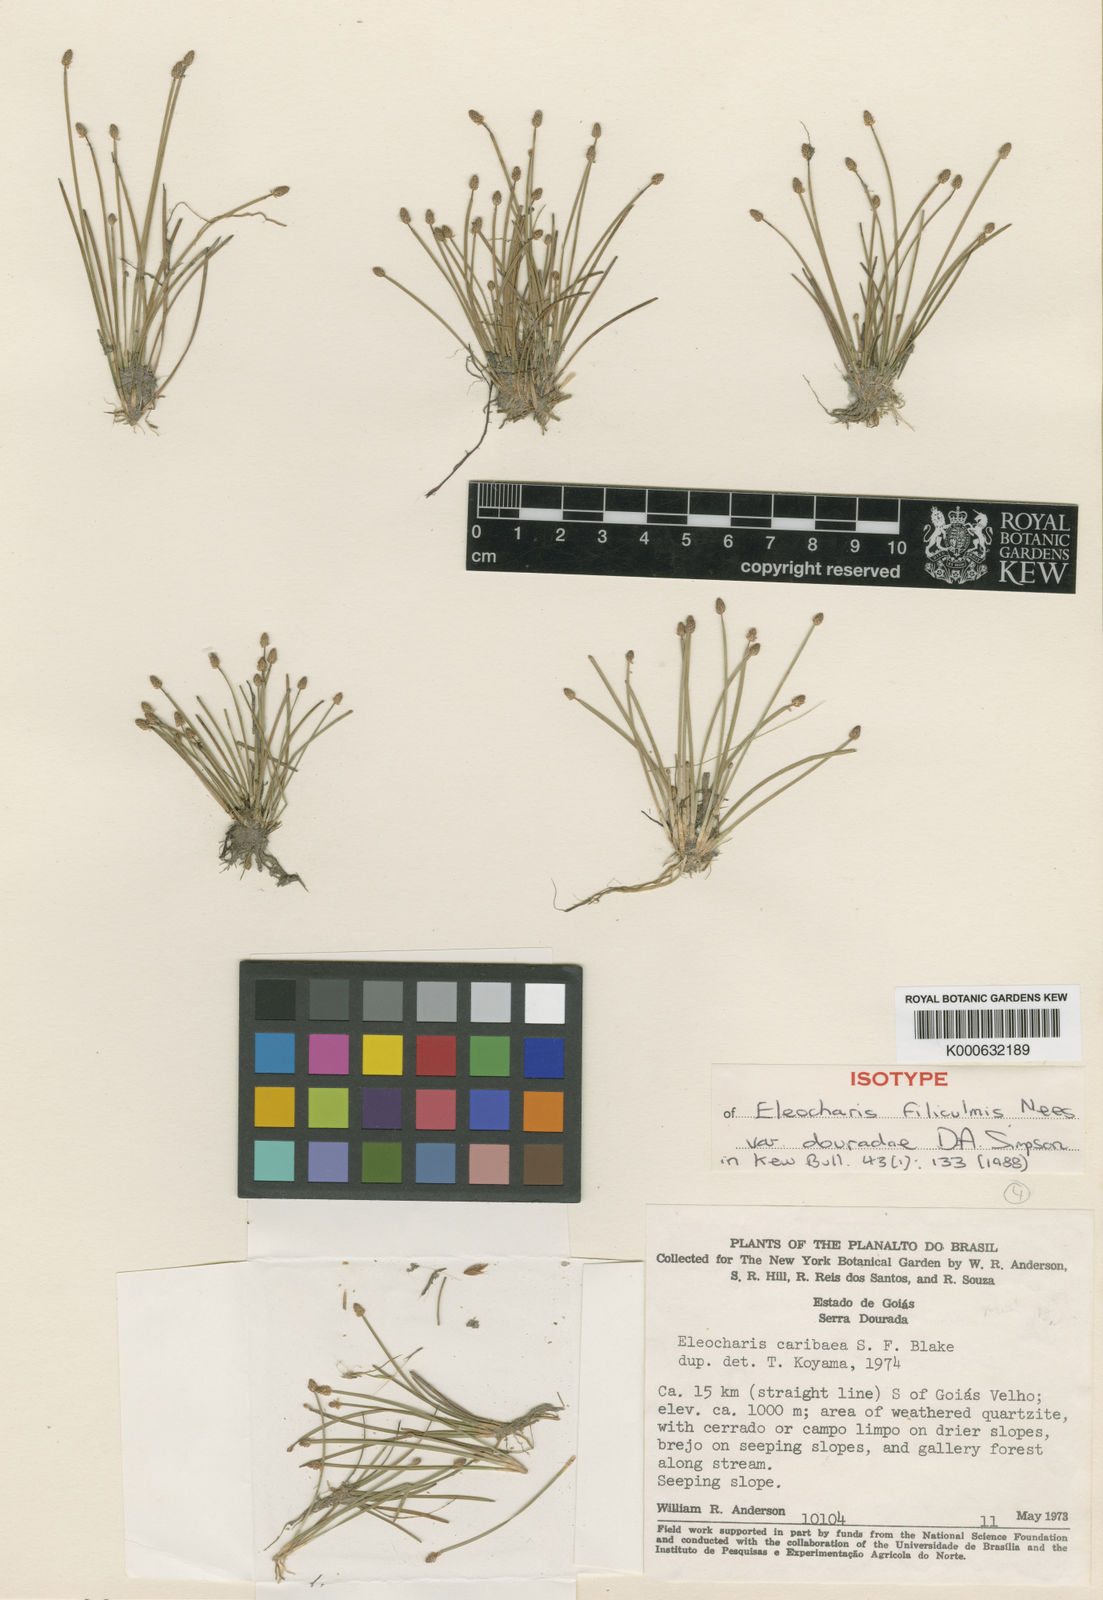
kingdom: Plantae
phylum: Tracheophyta
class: Liliopsida
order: Poales
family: Cyperaceae
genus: Eleocharis
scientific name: Eleocharis filiculmis
